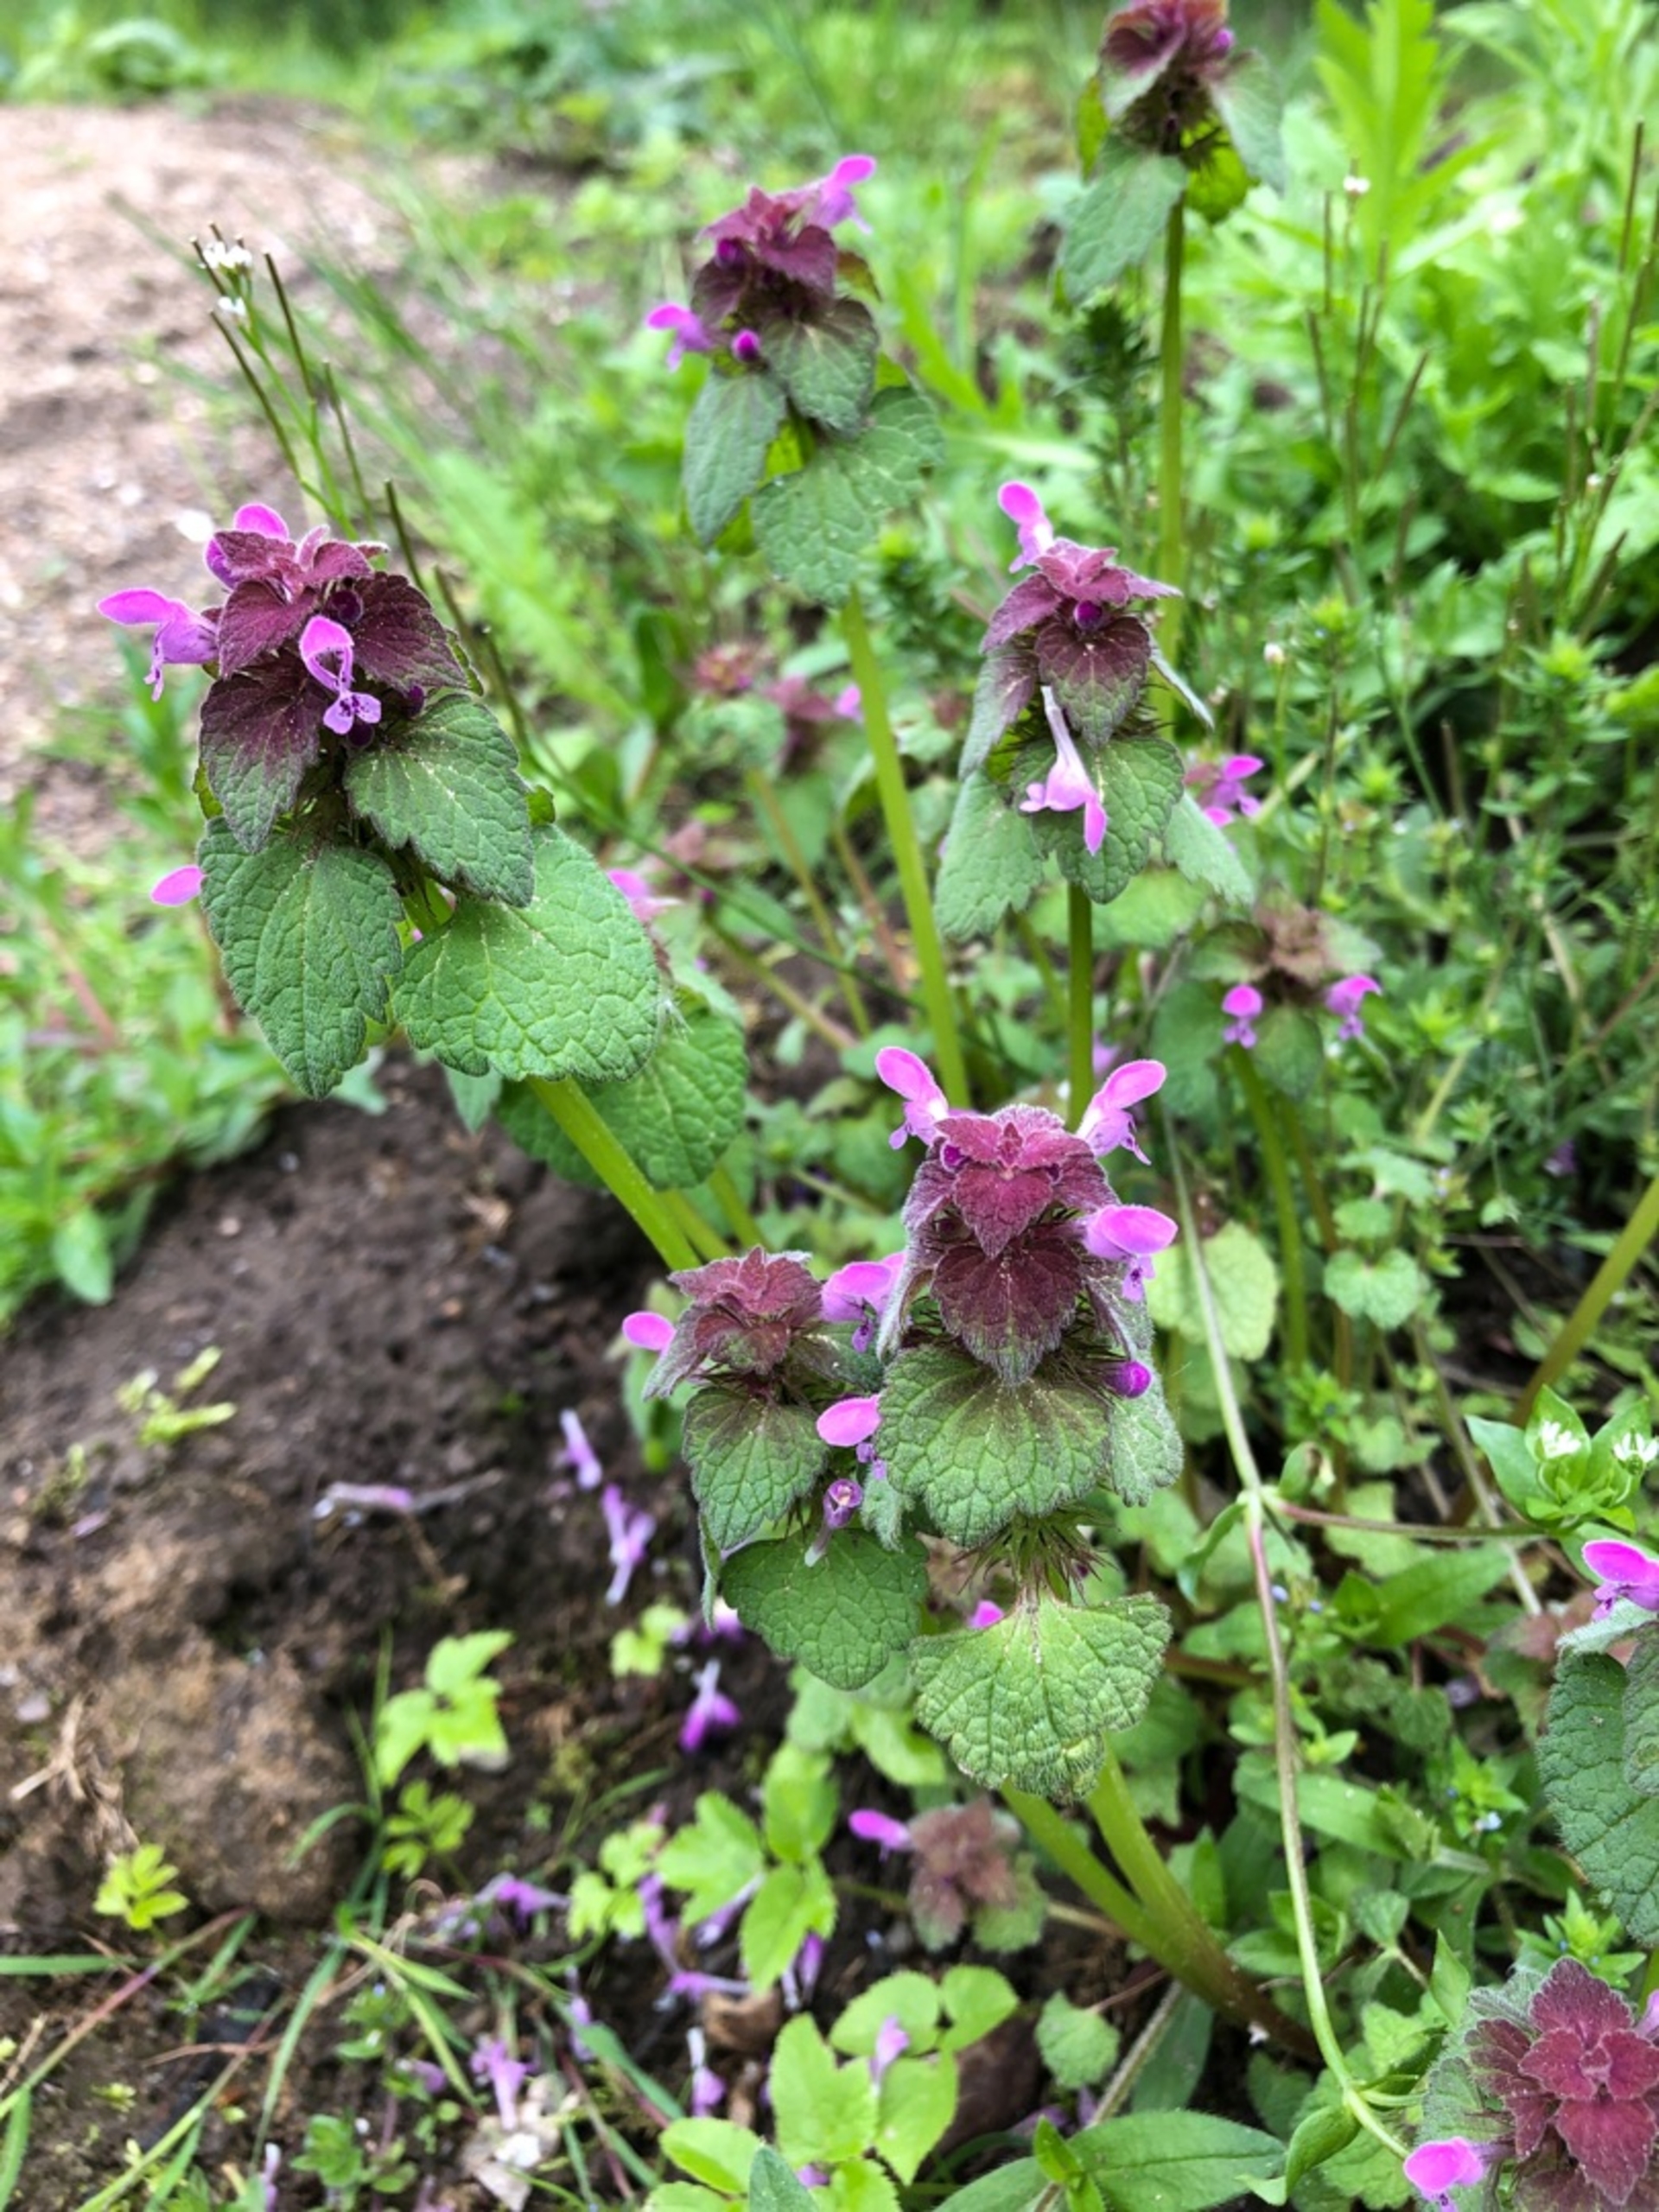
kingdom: Plantae
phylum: Tracheophyta
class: Magnoliopsida
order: Lamiales
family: Lamiaceae
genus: Lamium
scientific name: Lamium purpureum
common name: Rød tvetand
